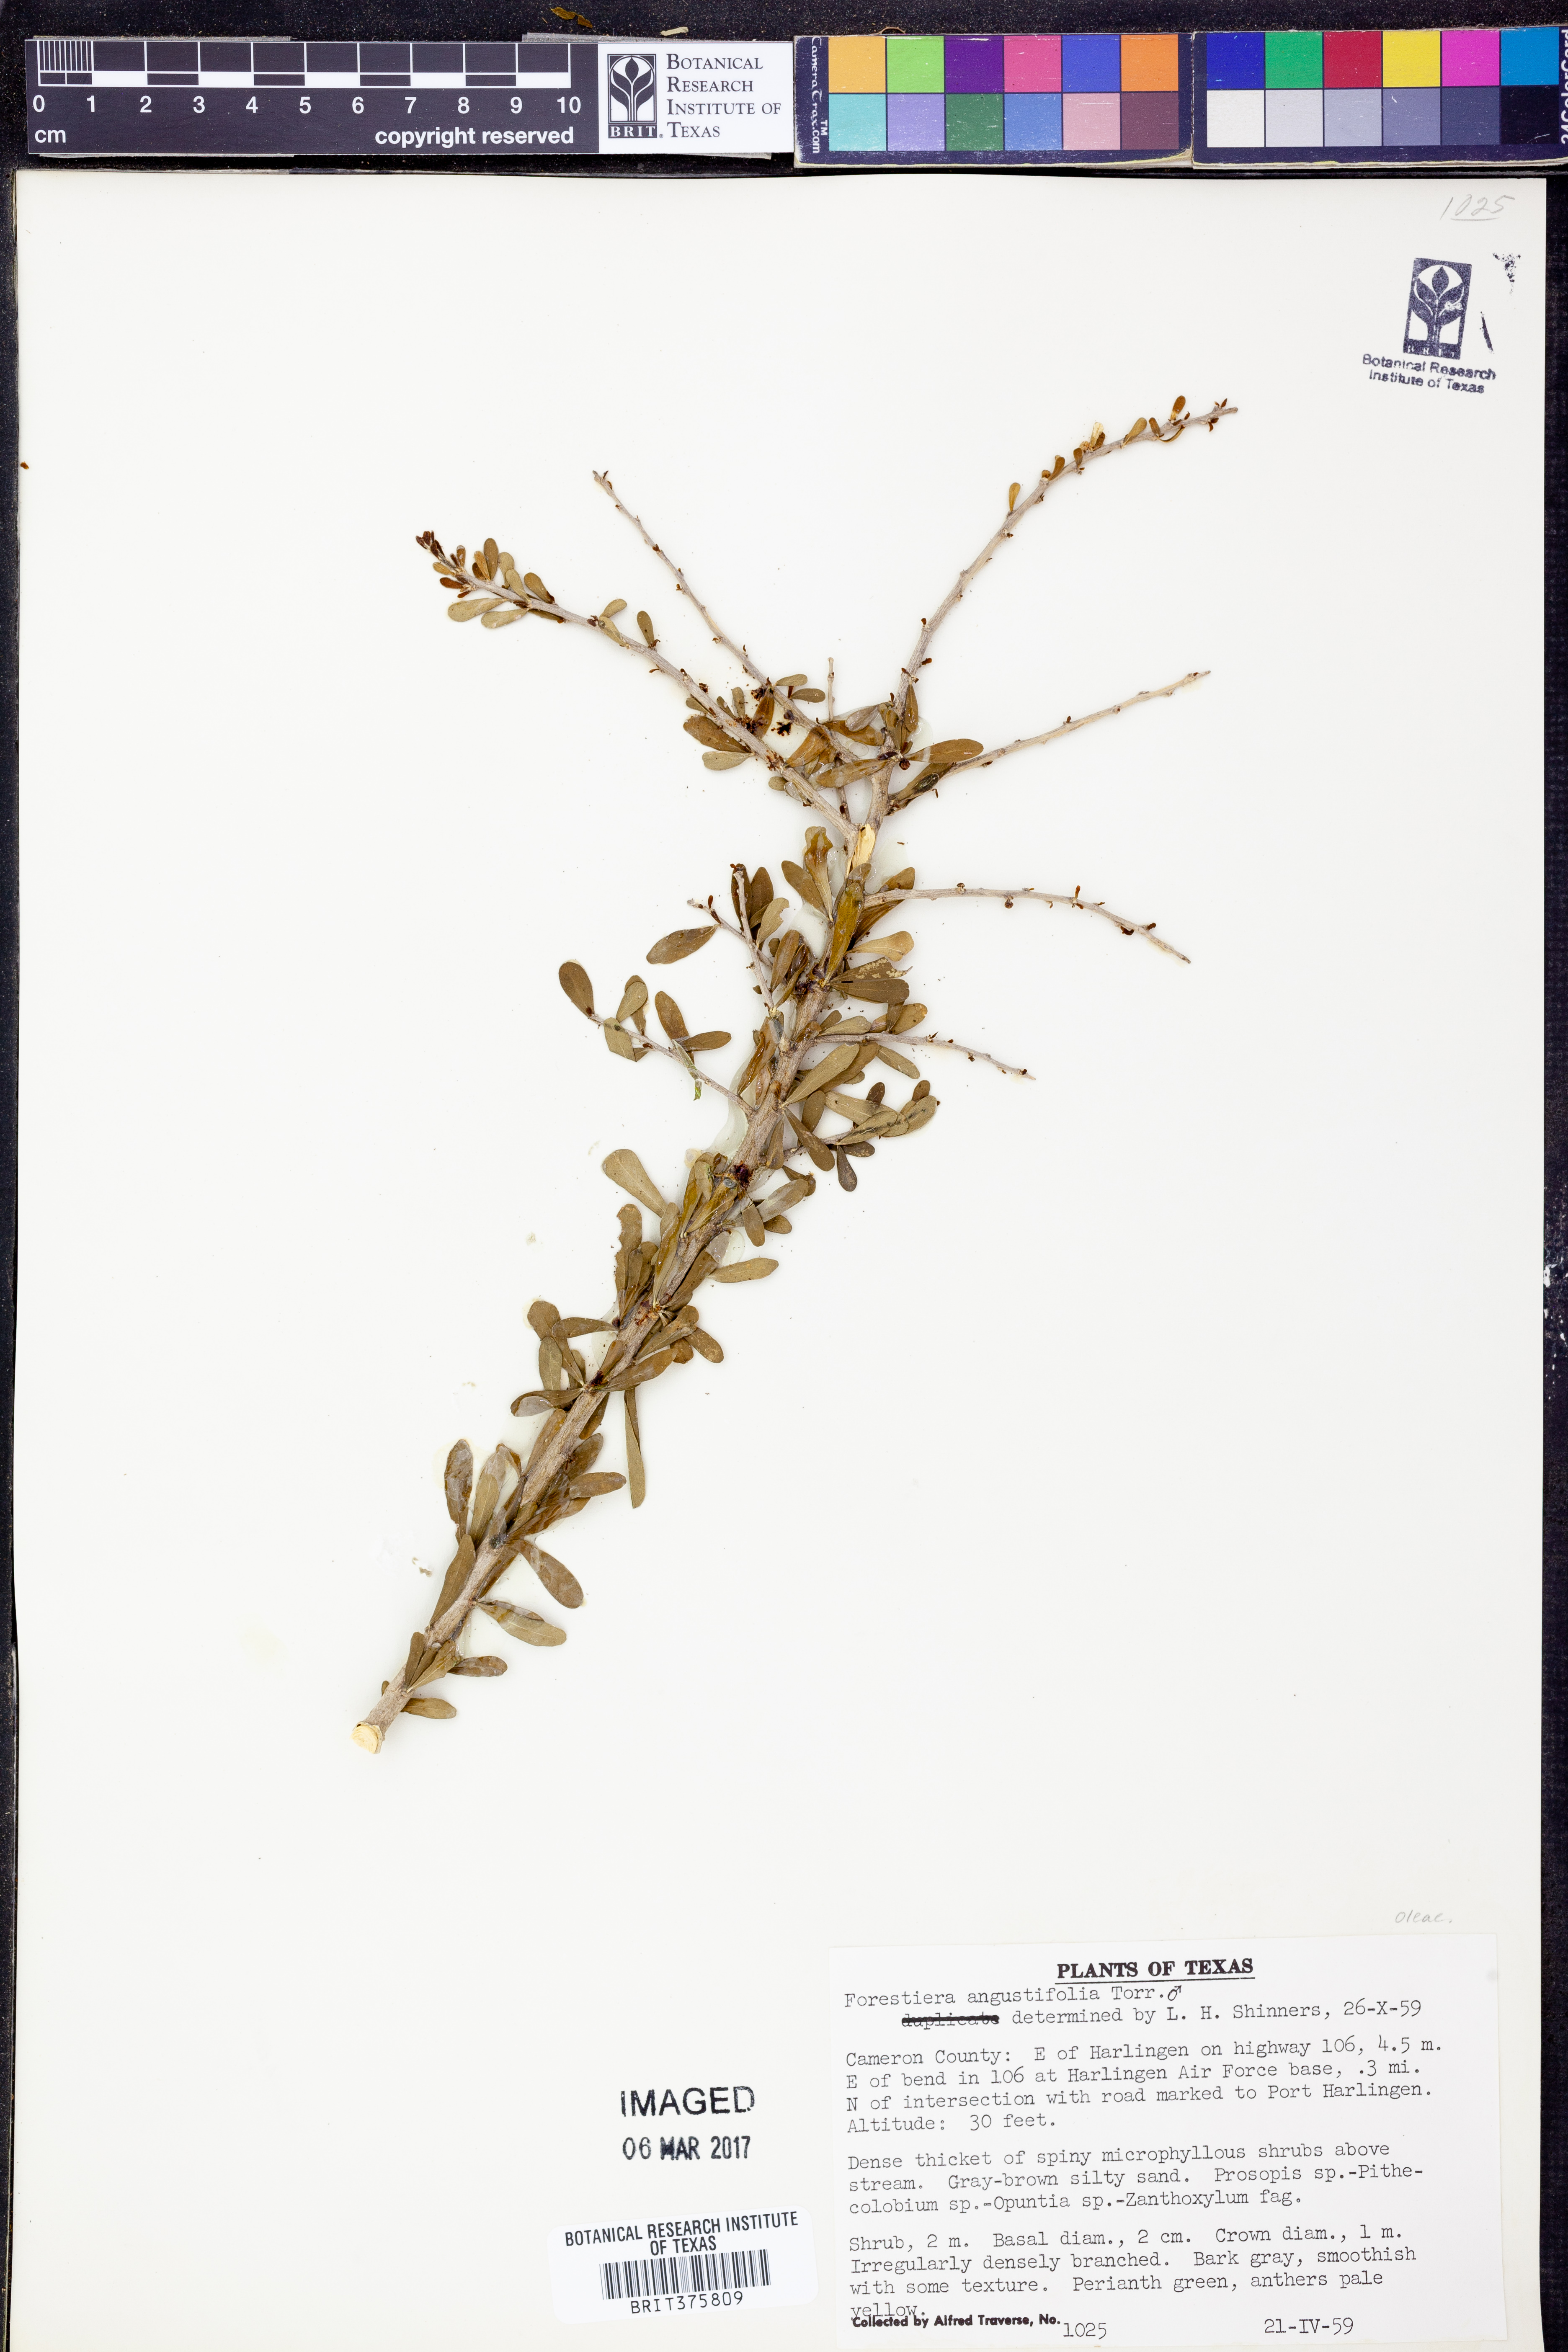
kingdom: Plantae
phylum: Tracheophyta
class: Magnoliopsida
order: Lamiales
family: Oleaceae
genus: Forestiera
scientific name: Forestiera angustifolia
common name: Elbowbush
